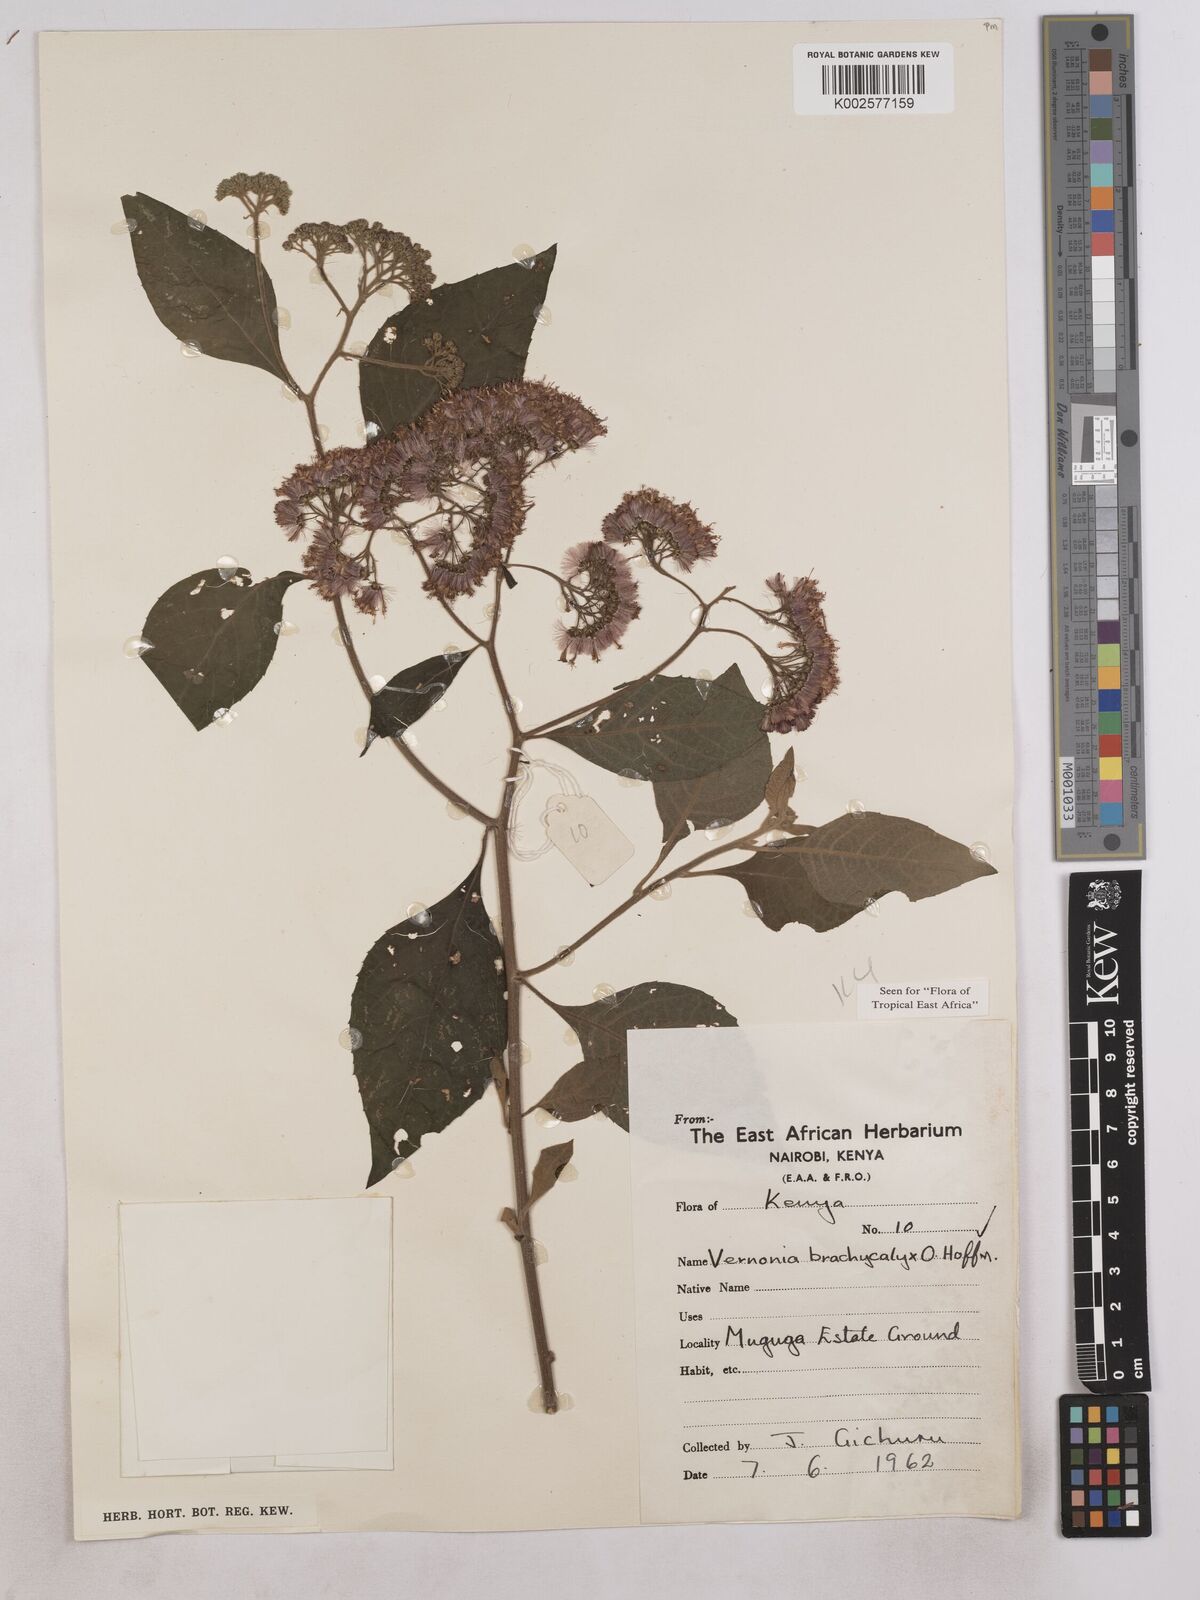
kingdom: Plantae
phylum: Tracheophyta
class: Magnoliopsida
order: Asterales
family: Asteraceae
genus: Hoffmannanthus
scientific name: Hoffmannanthus abbotianus
